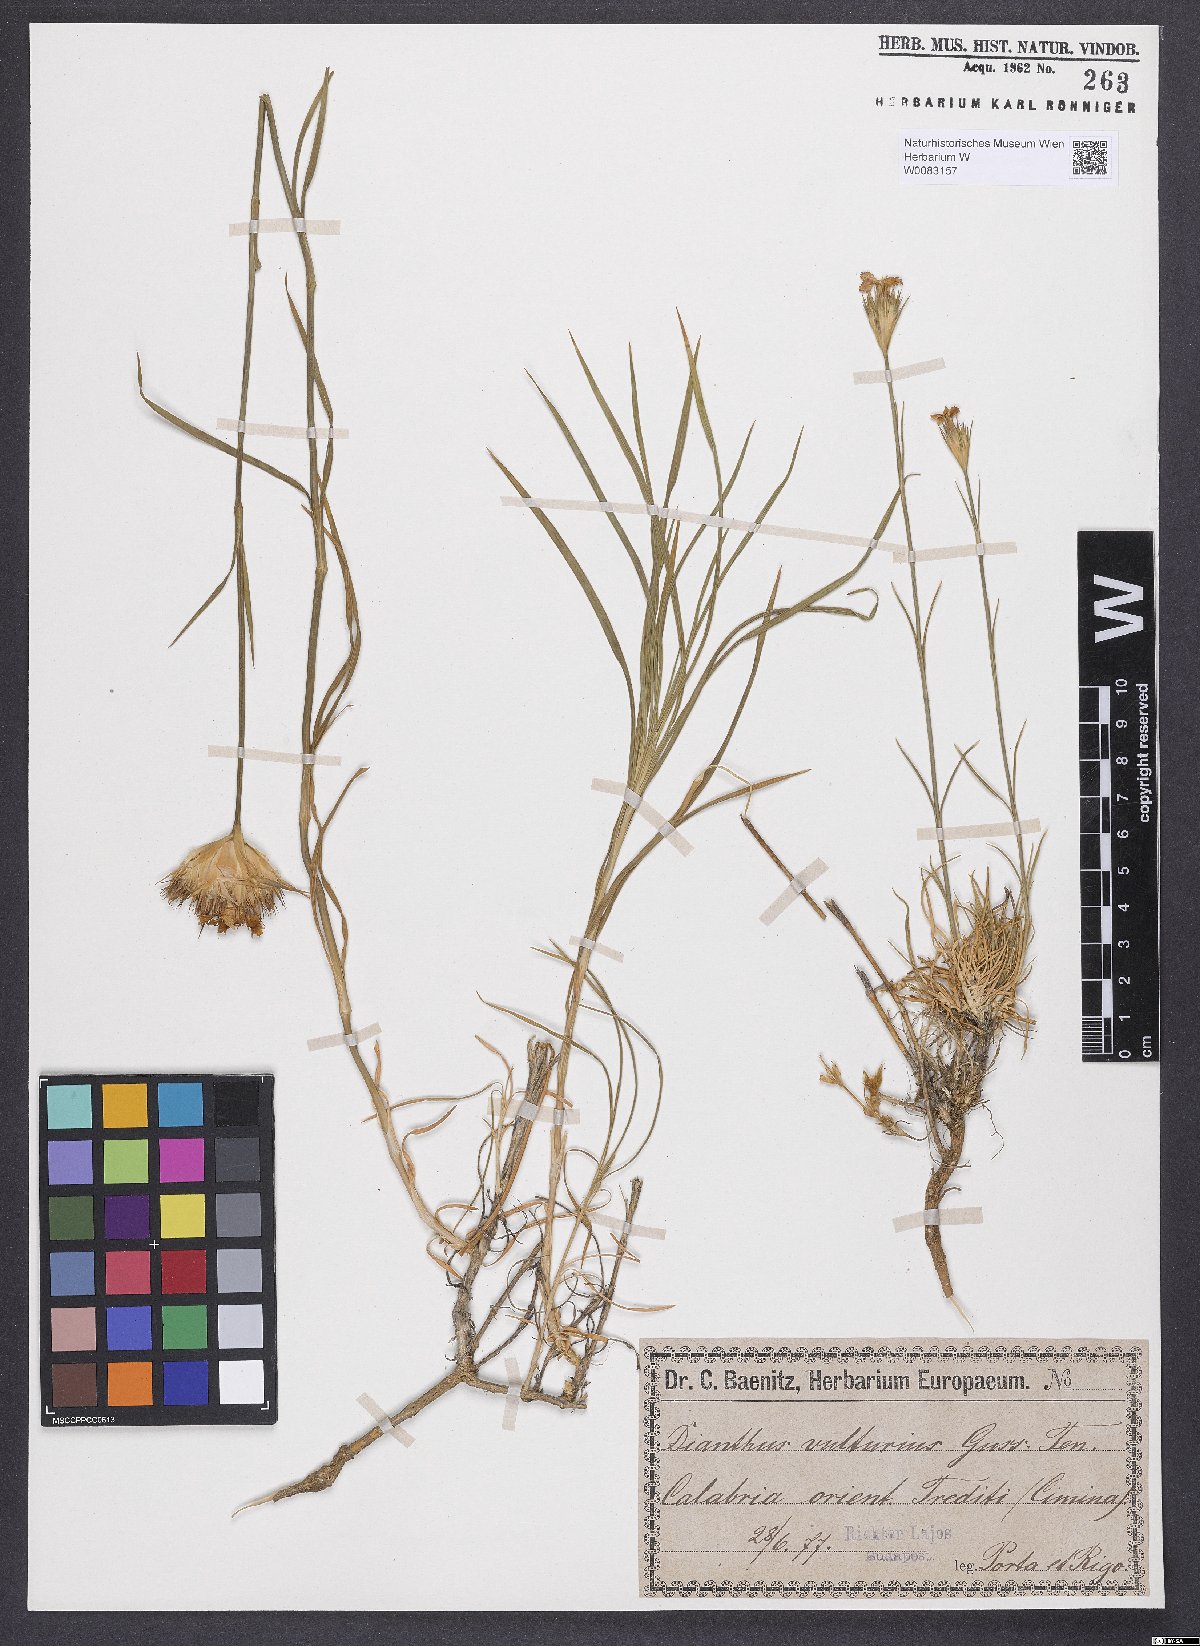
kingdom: Plantae
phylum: Tracheophyta
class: Magnoliopsida
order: Caryophyllales
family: Caryophyllaceae
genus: Dianthus
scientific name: Dianthus vulturius
